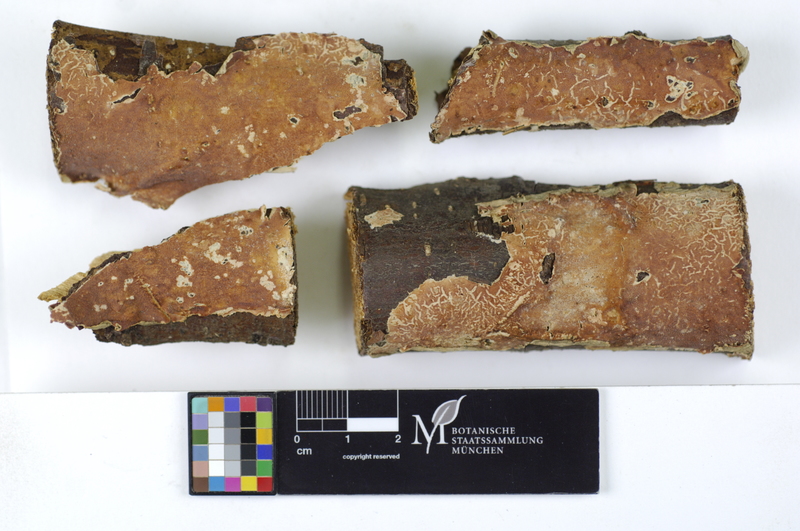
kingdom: Plantae
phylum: Tracheophyta
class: Magnoliopsida
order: Fagales
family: Betulaceae
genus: Alnus
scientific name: Alnus
